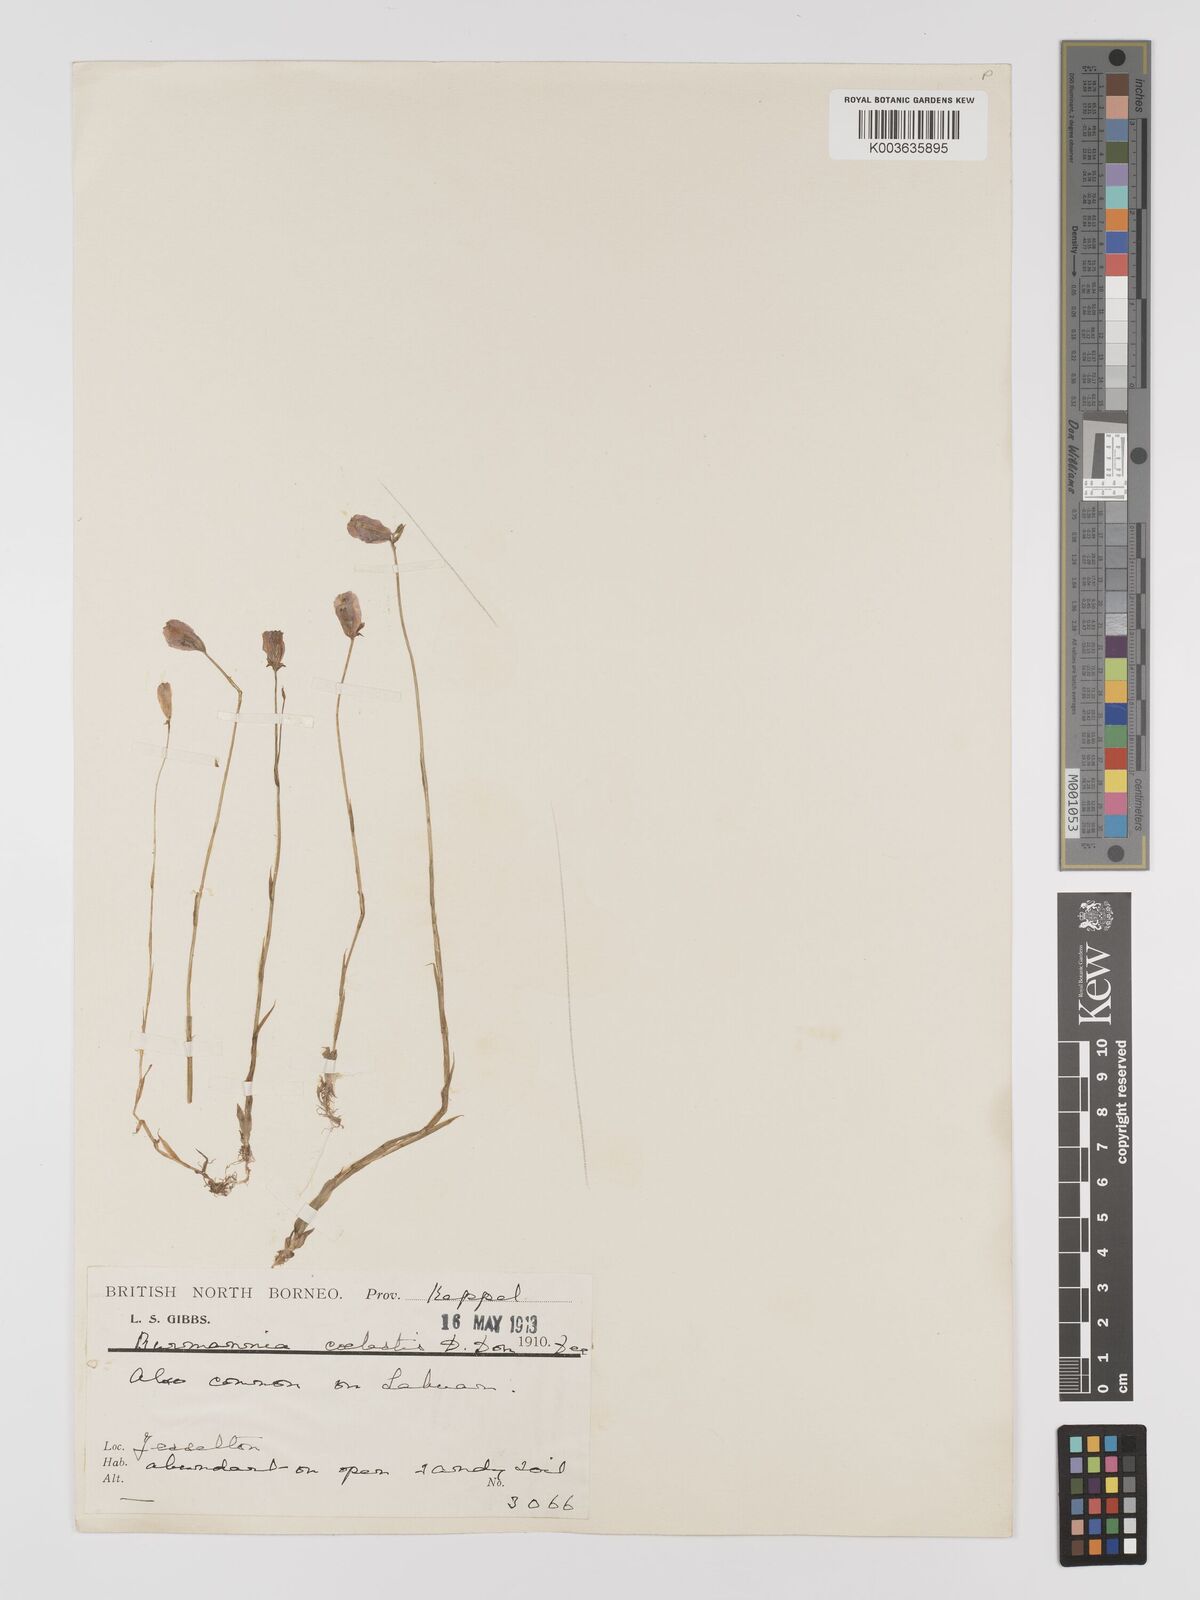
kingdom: Plantae
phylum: Tracheophyta
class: Liliopsida
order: Dioscoreales
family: Burmanniaceae
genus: Burmannia
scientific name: Burmannia coelestis
